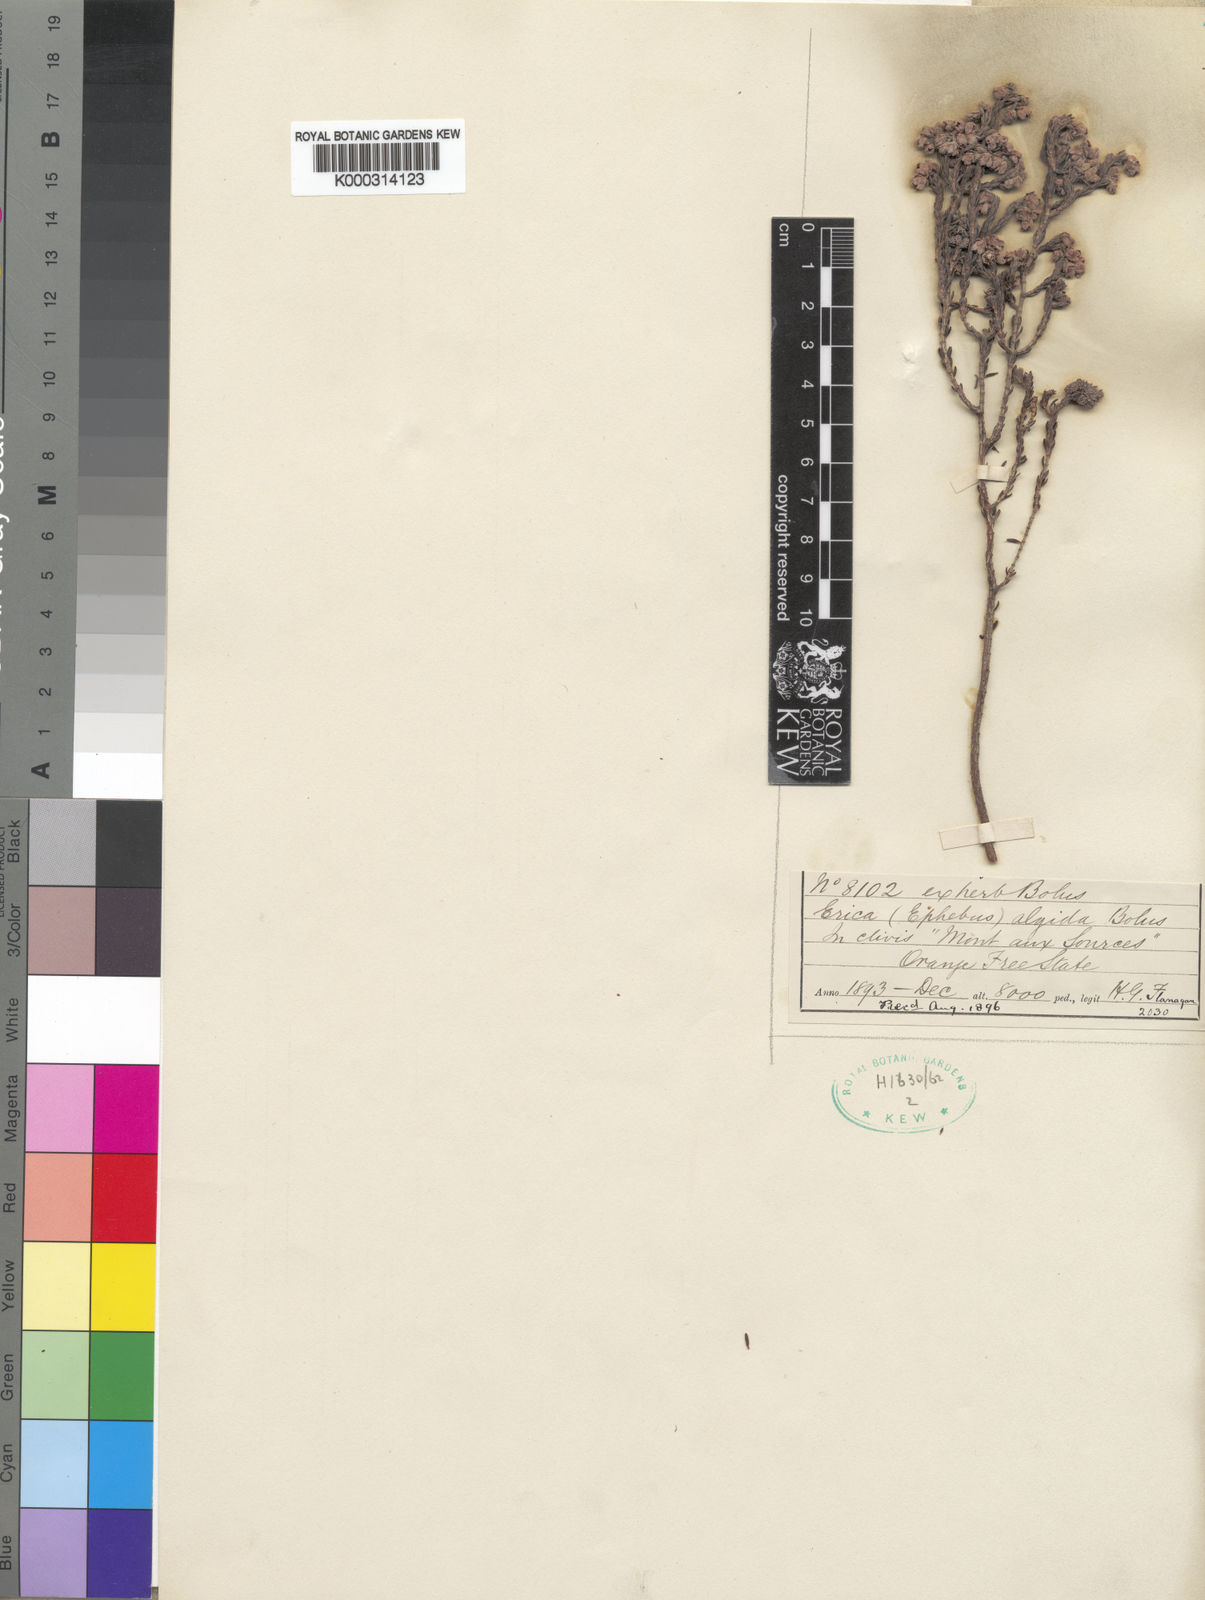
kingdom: Plantae
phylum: Tracheophyta
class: Magnoliopsida
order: Ericales
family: Ericaceae
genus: Erica
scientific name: Erica algida
